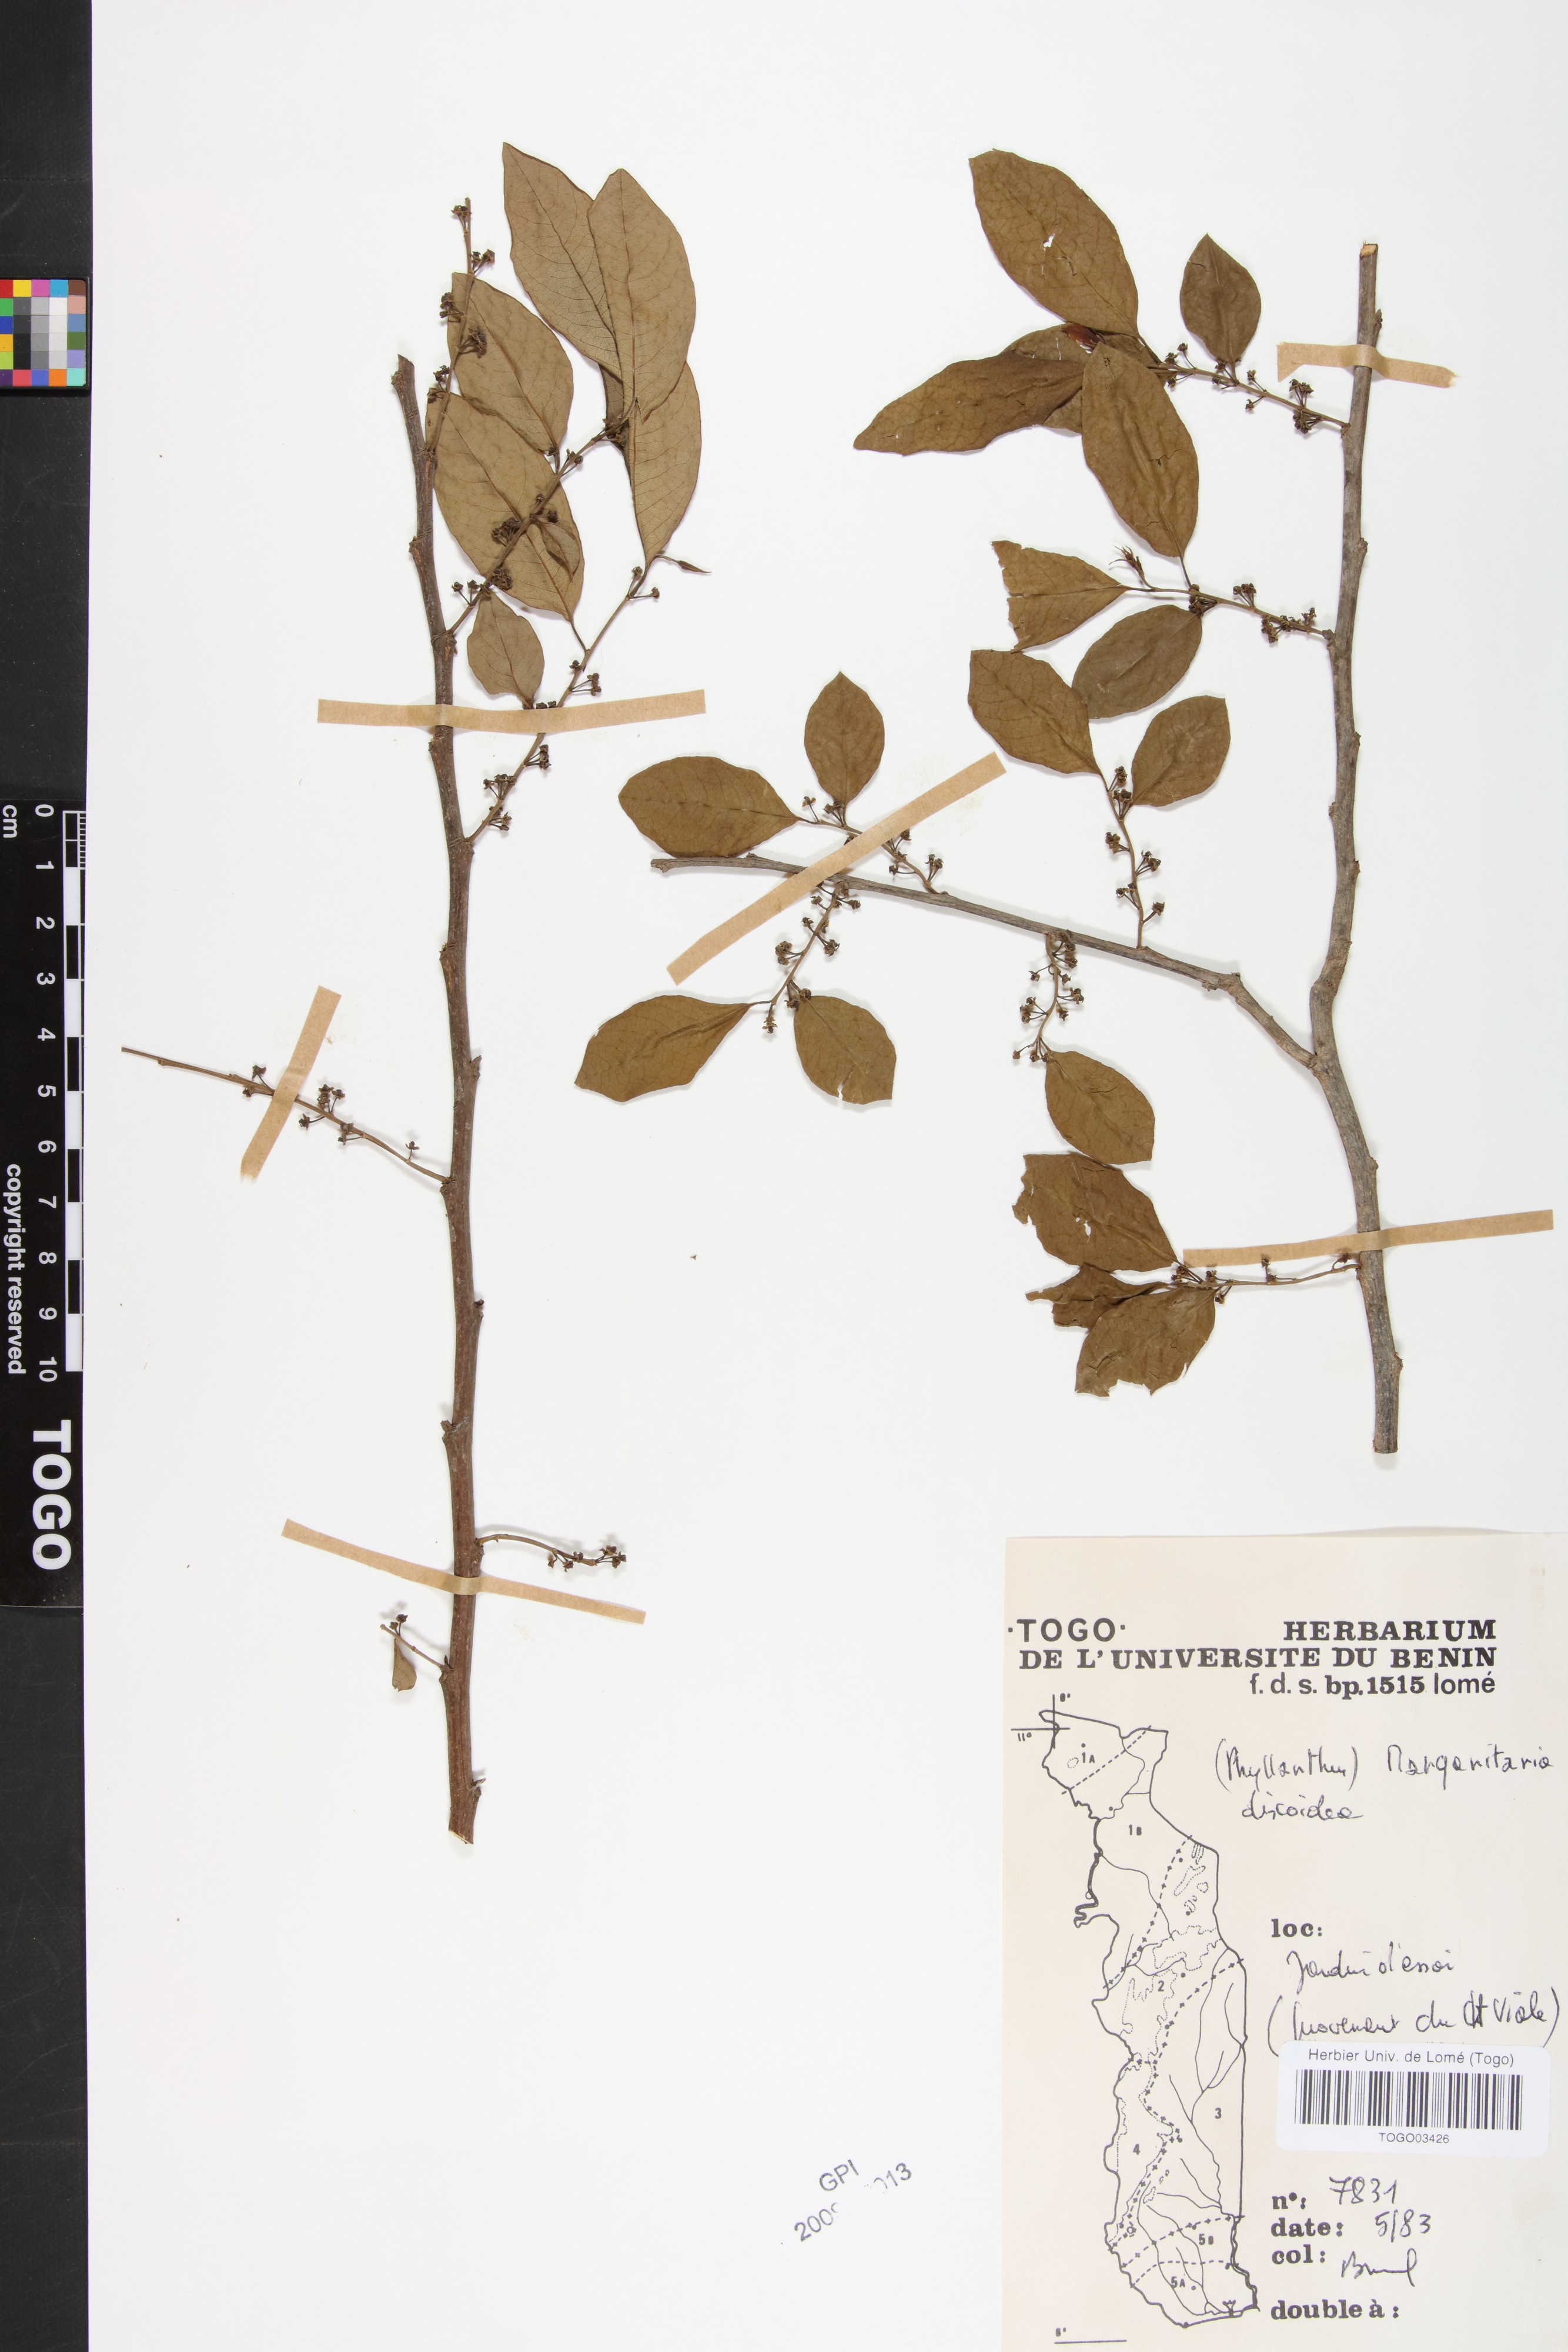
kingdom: Plantae
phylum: Tracheophyta
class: Magnoliopsida
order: Malpighiales
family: Phyllanthaceae
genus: Margaritaria
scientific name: Margaritaria discoidea
